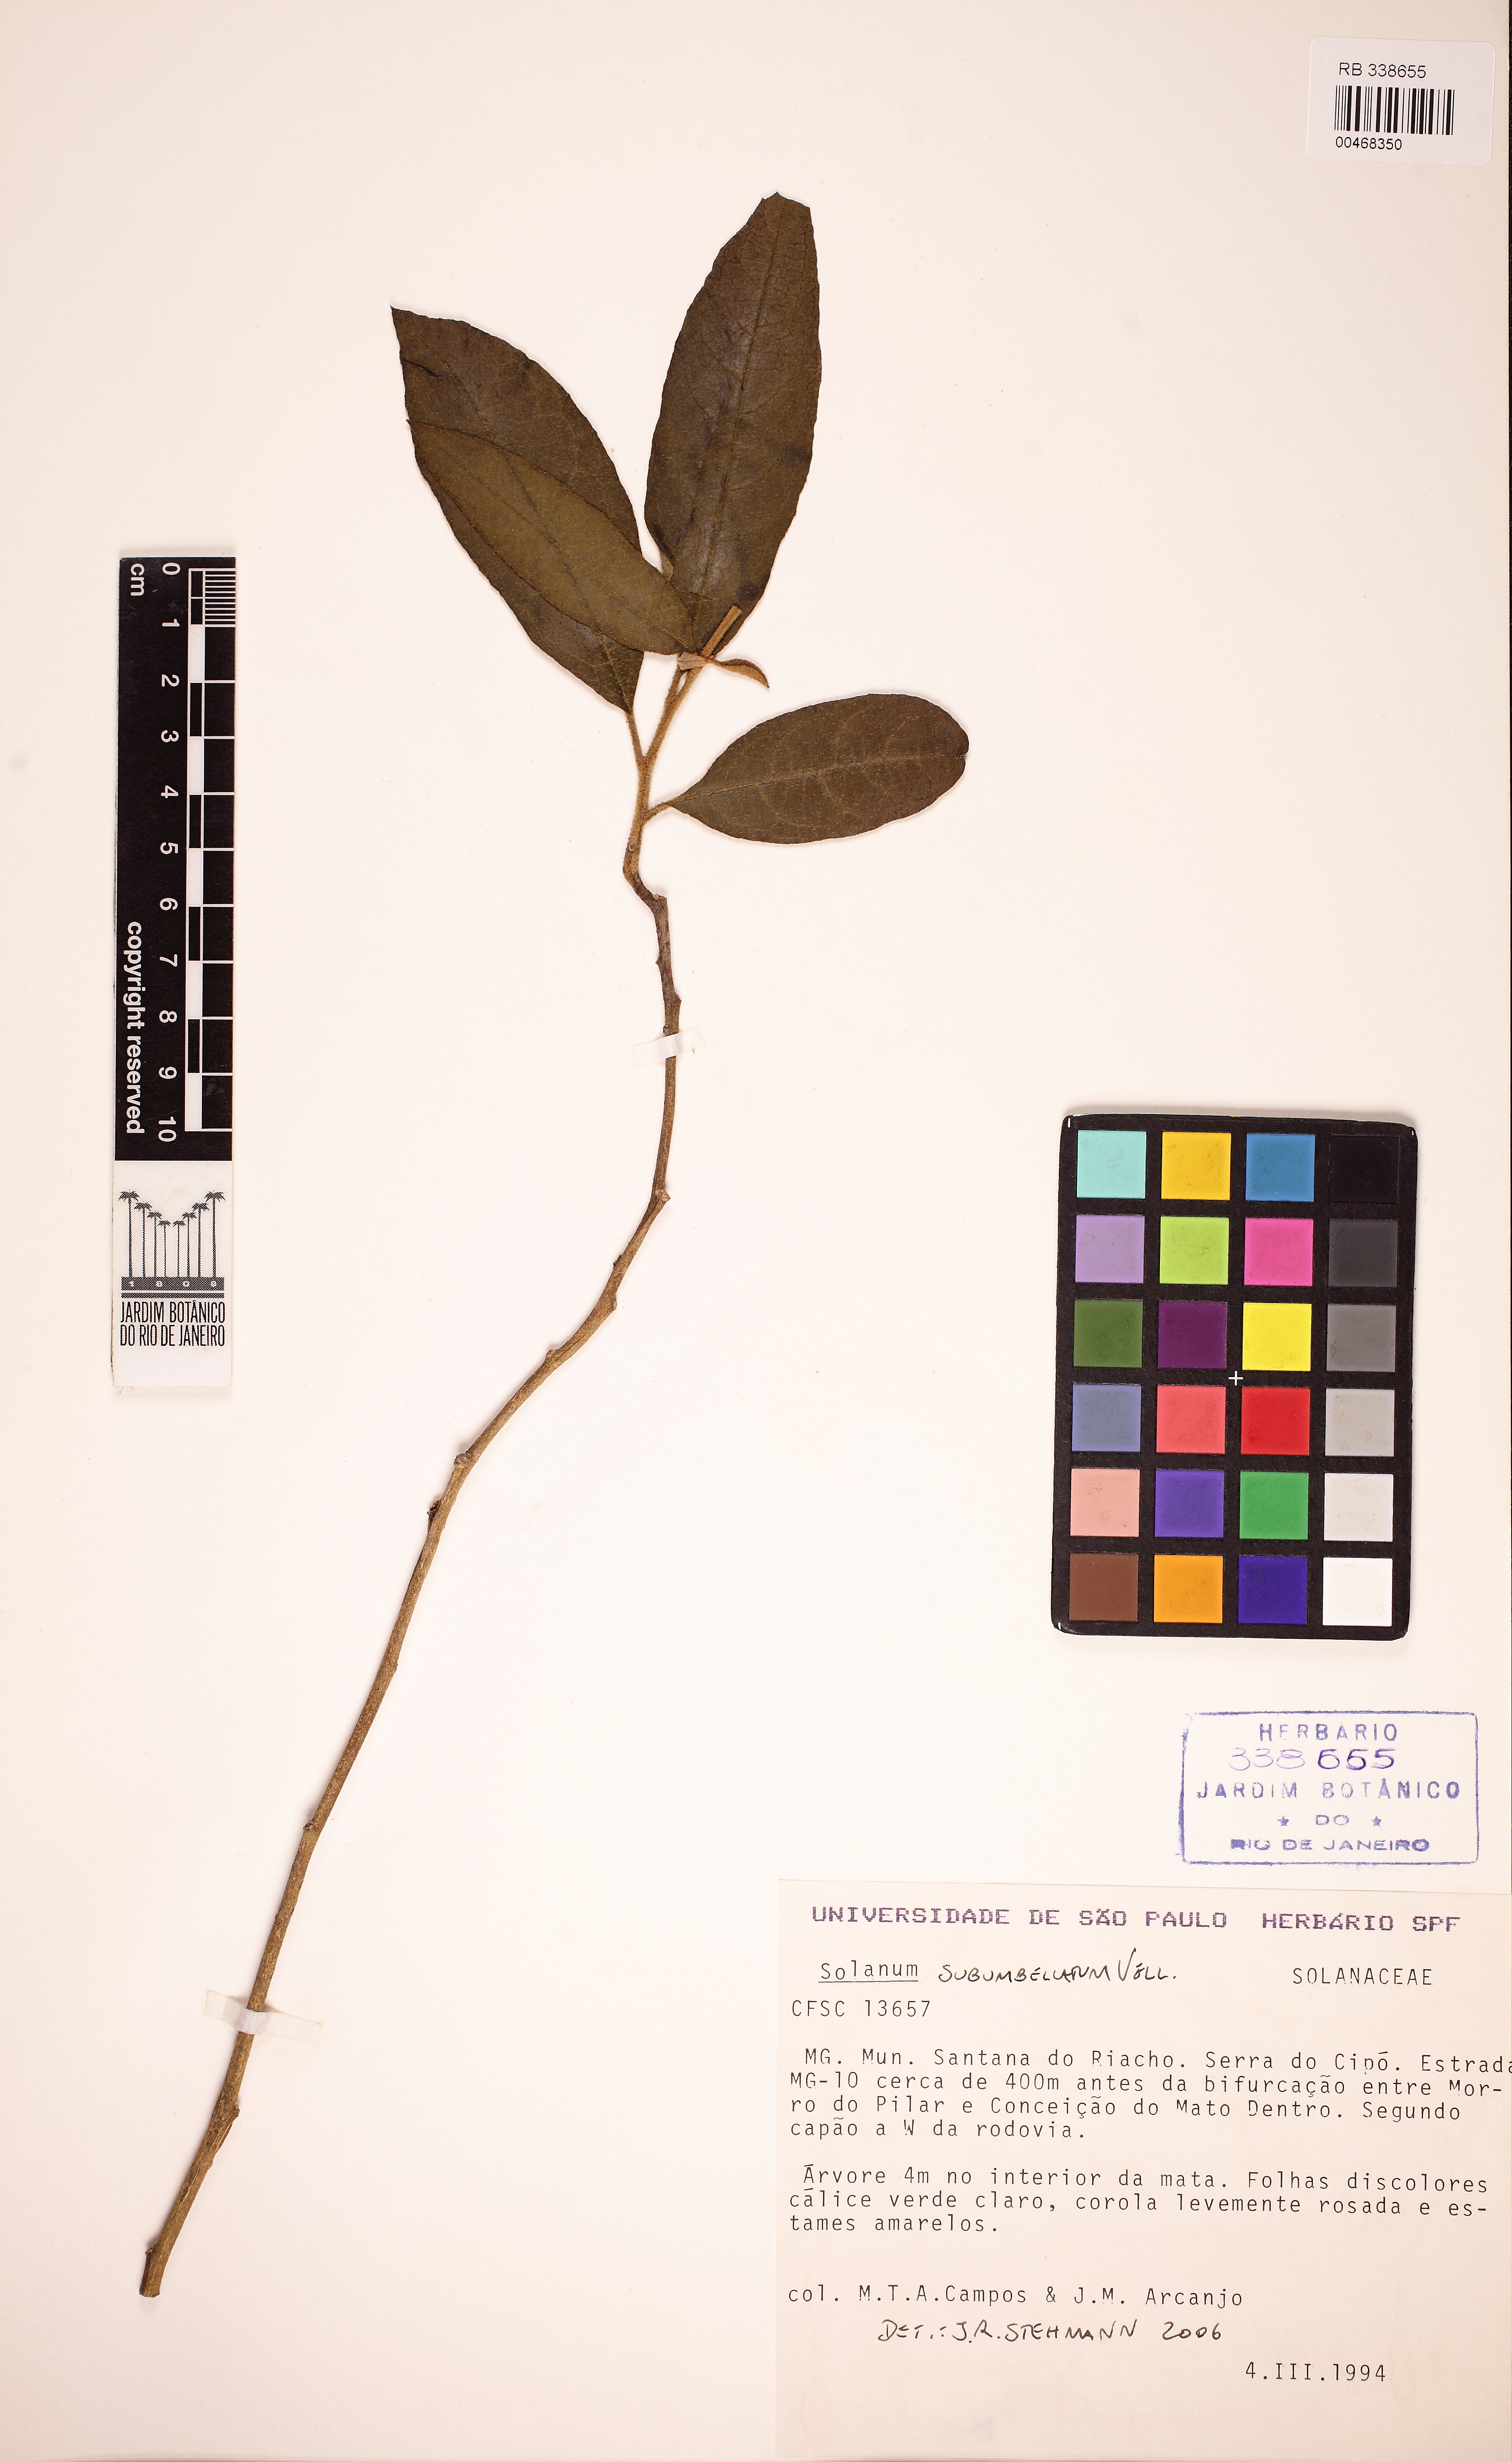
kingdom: Plantae
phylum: Tracheophyta
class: Magnoliopsida
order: Solanales
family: Solanaceae
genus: Solanum
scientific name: Solanum subumbellatum
